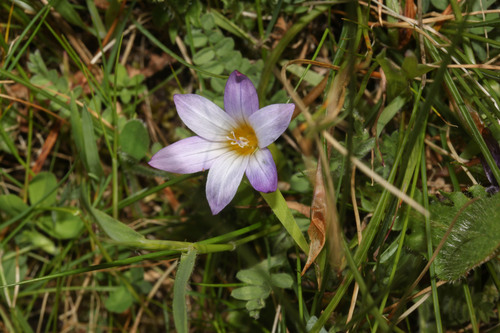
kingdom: Plantae
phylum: Tracheophyta
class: Liliopsida
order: Asparagales
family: Iridaceae
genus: Romulea
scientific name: Romulea bulbocodium
